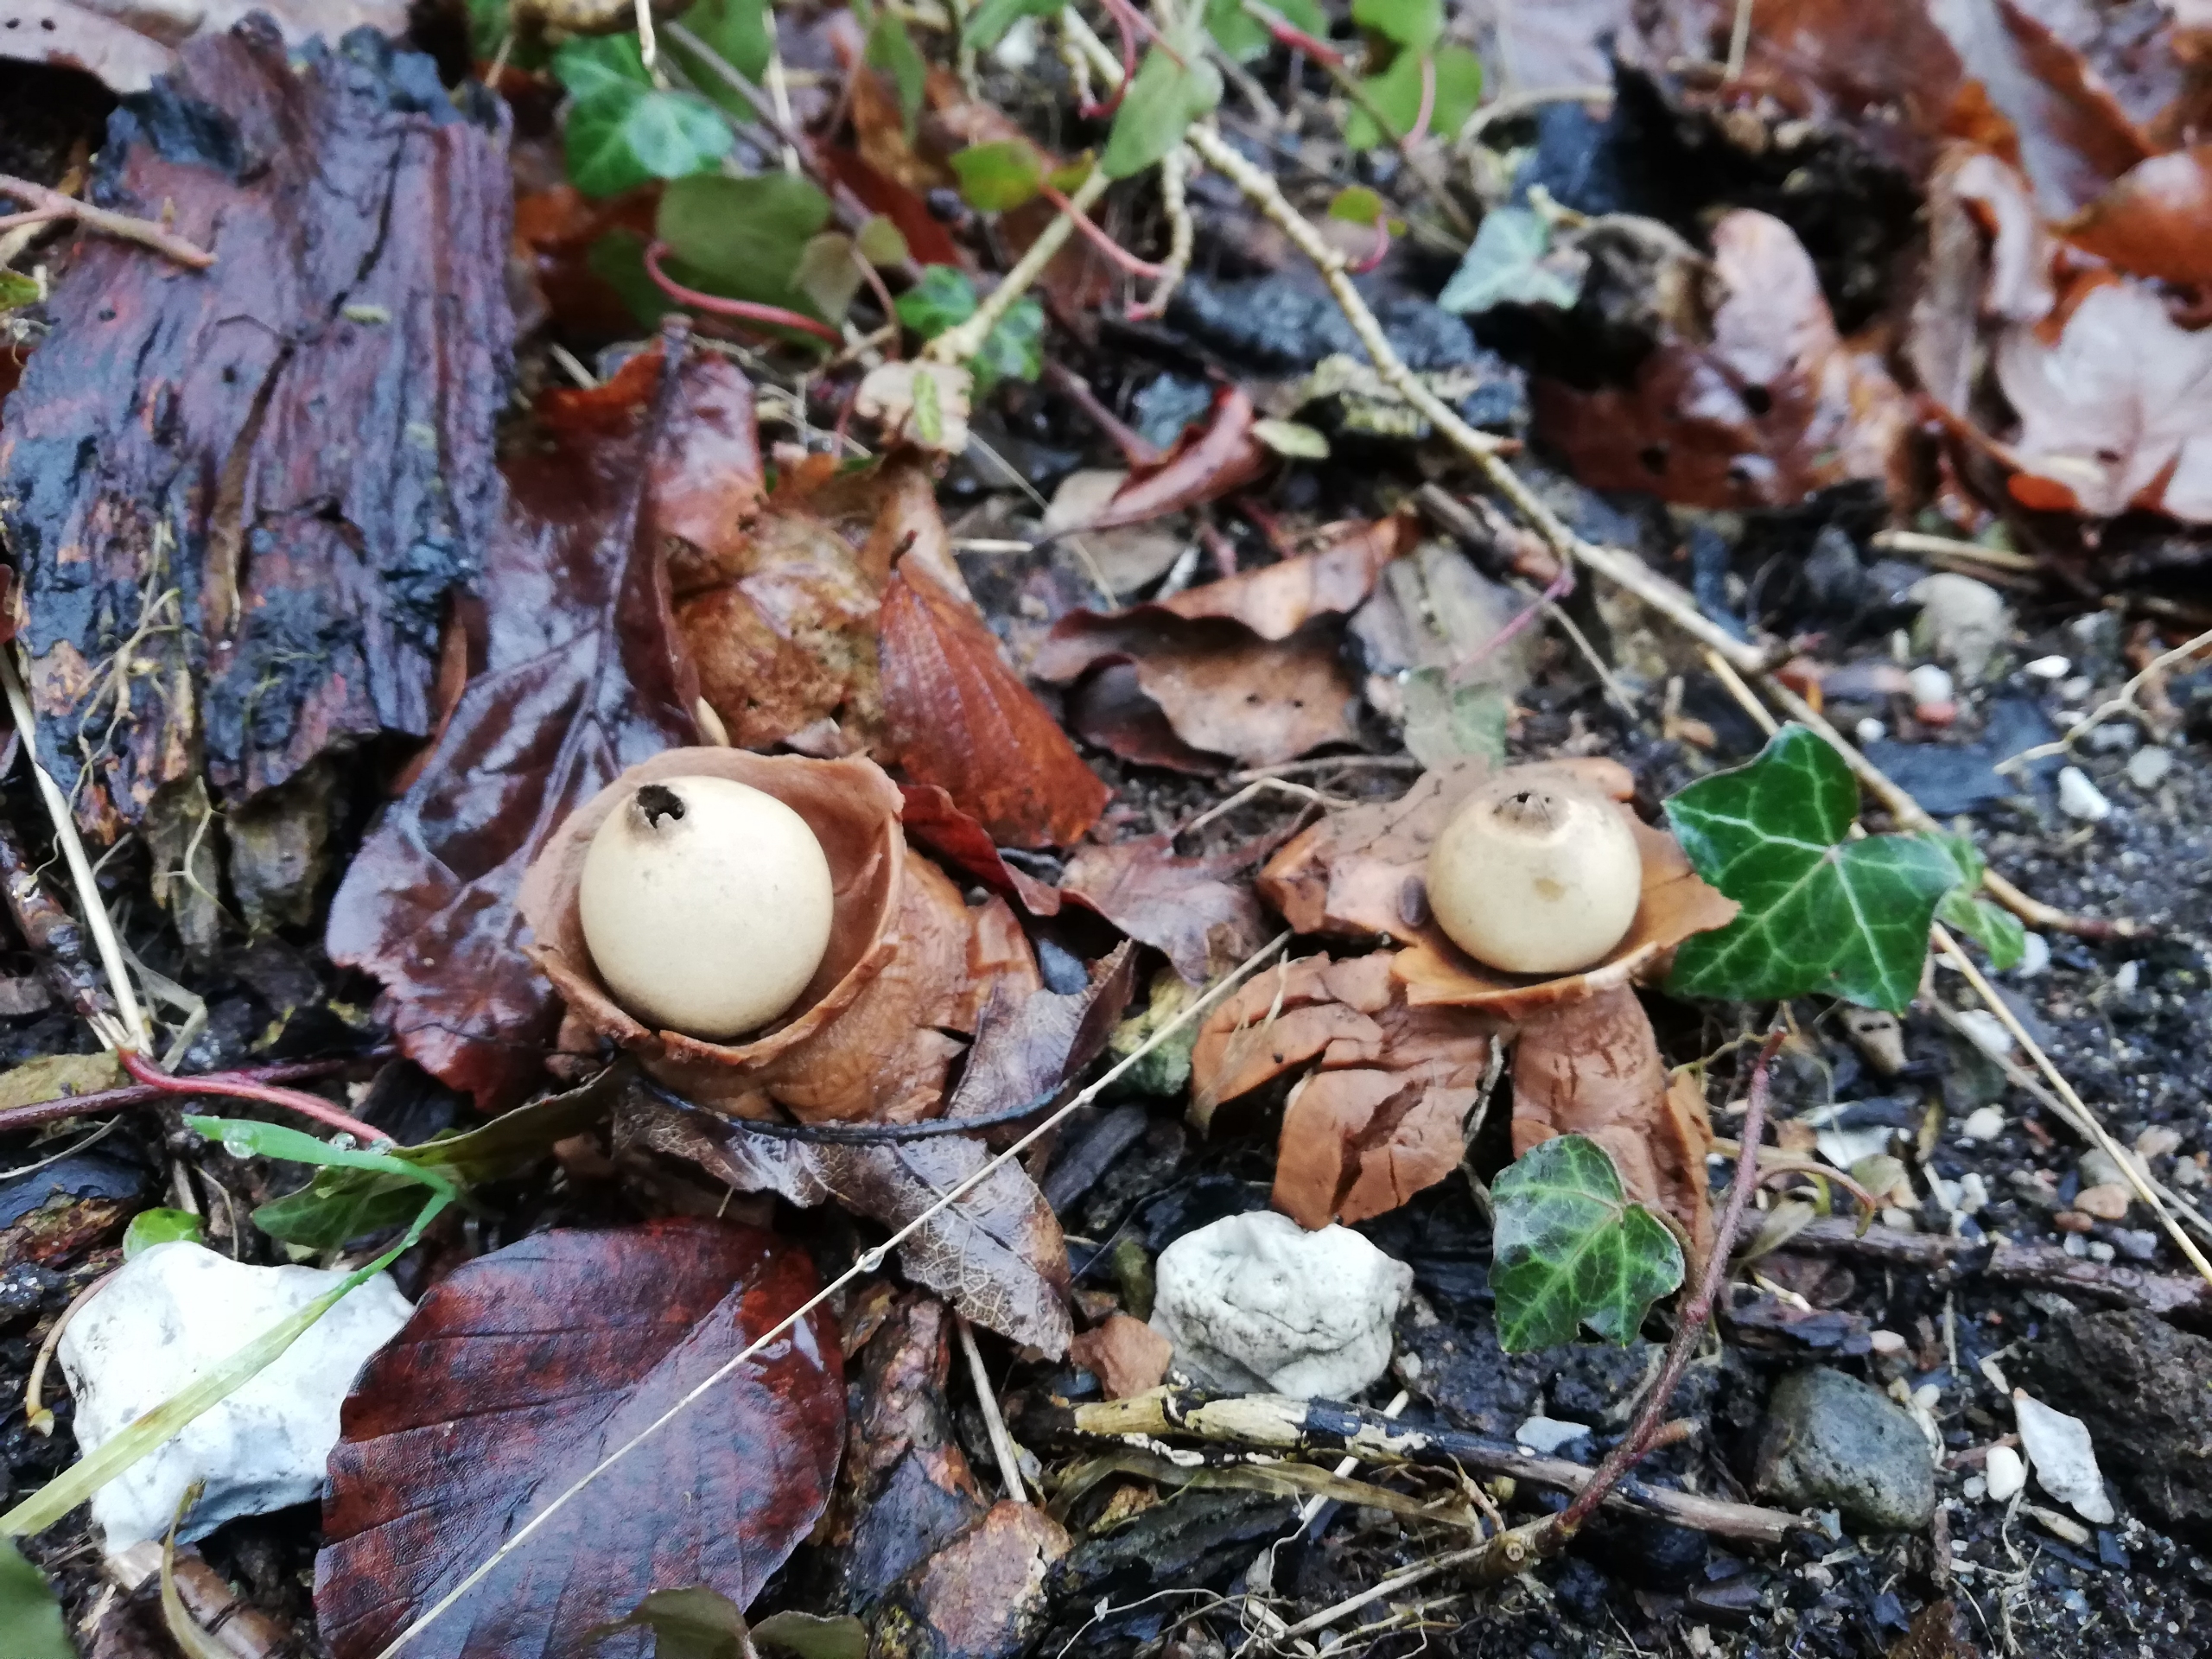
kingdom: Fungi
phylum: Basidiomycota
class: Agaricomycetes
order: Geastrales
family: Geastraceae
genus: Geastrum
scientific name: Geastrum michelianum
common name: Kødet stjernebold
